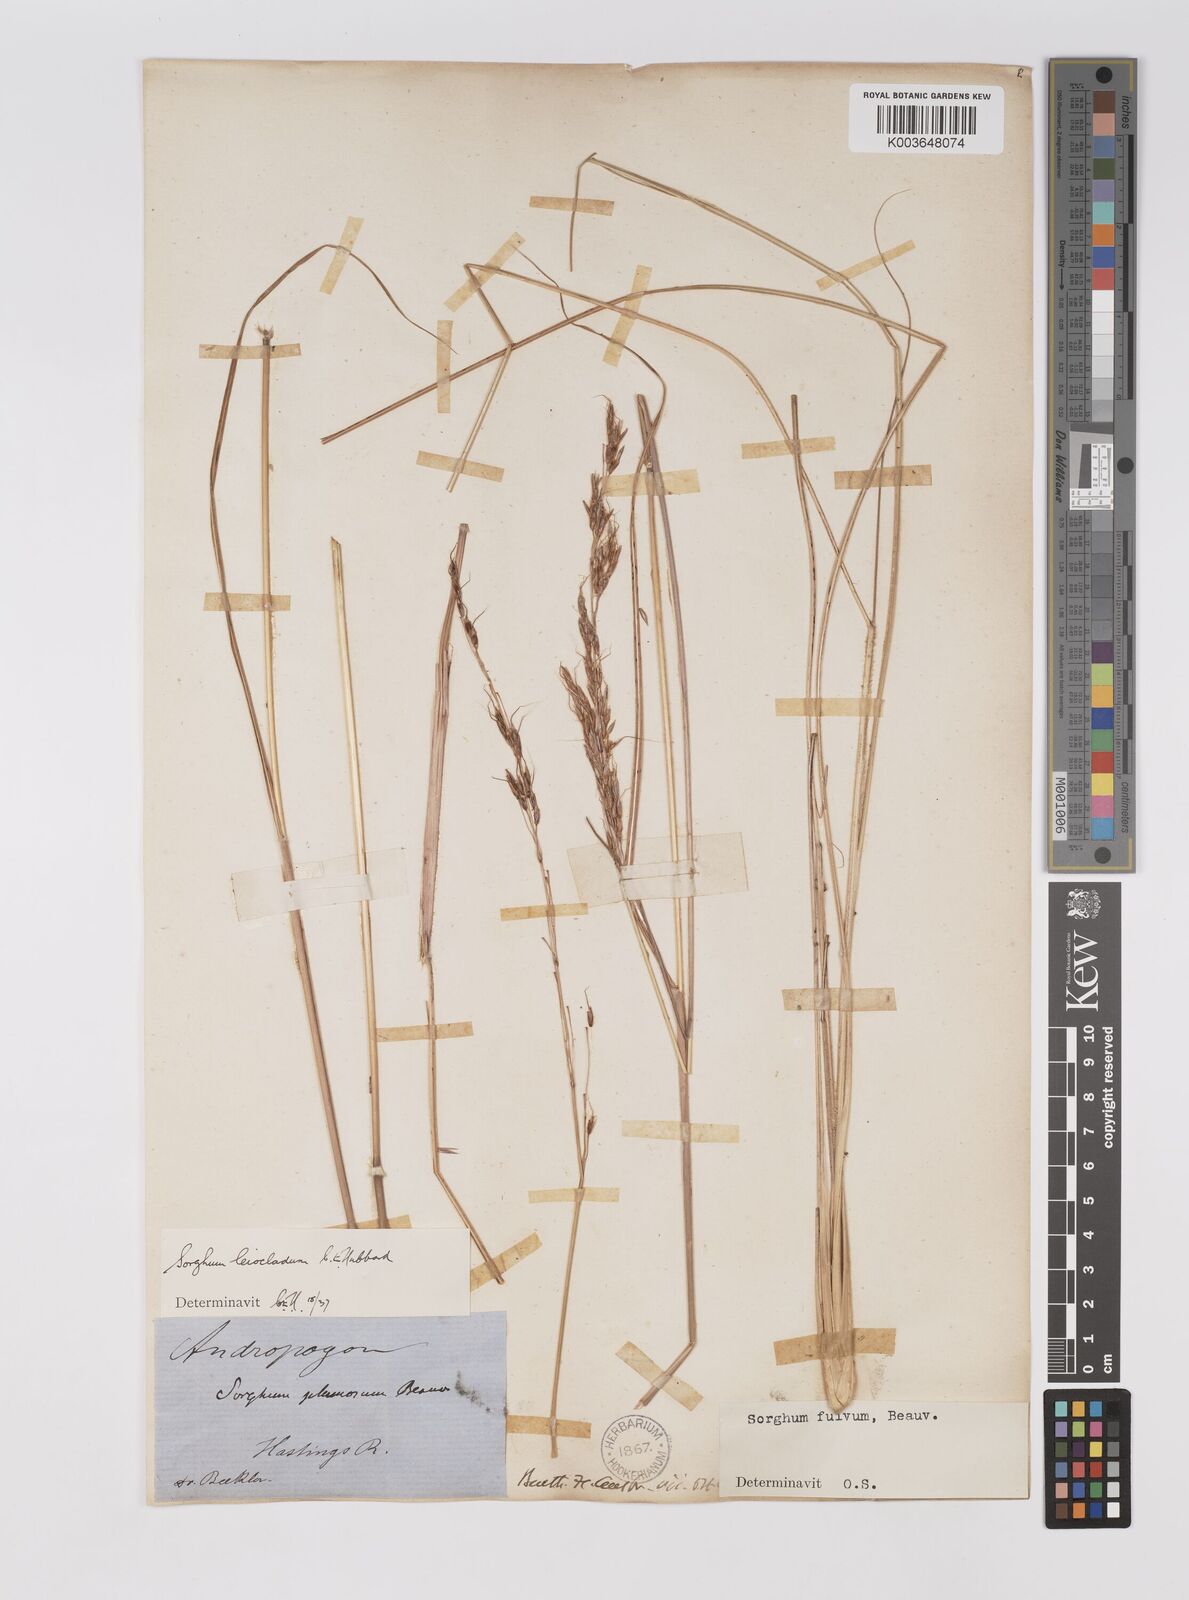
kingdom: Plantae
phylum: Tracheophyta
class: Liliopsida
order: Poales
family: Poaceae
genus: Sarga
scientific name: Sarga leioclada
